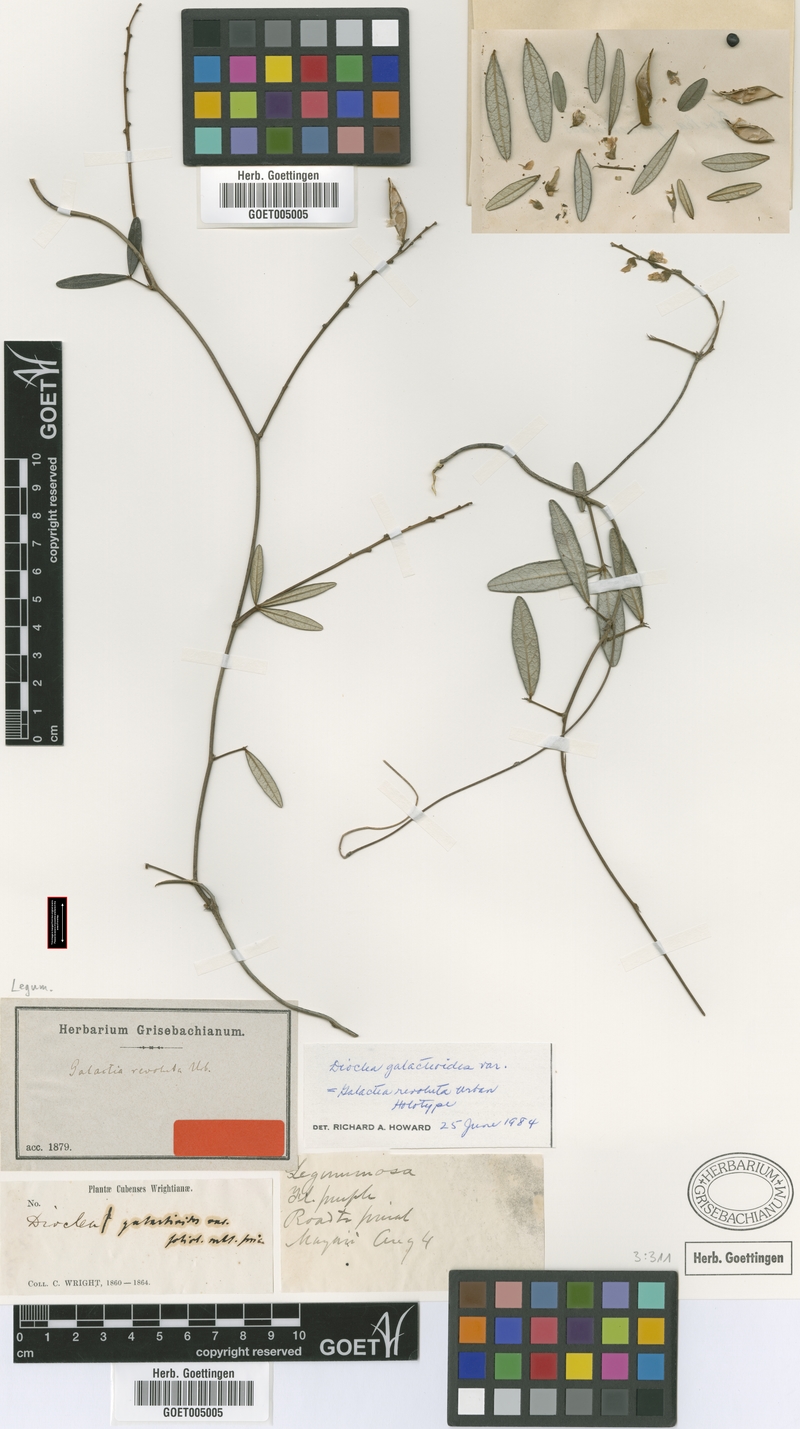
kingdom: Plantae
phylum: Tracheophyta
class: Magnoliopsida
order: Fabales
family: Fabaceae
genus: Galactia
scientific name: Galactia revoluta
